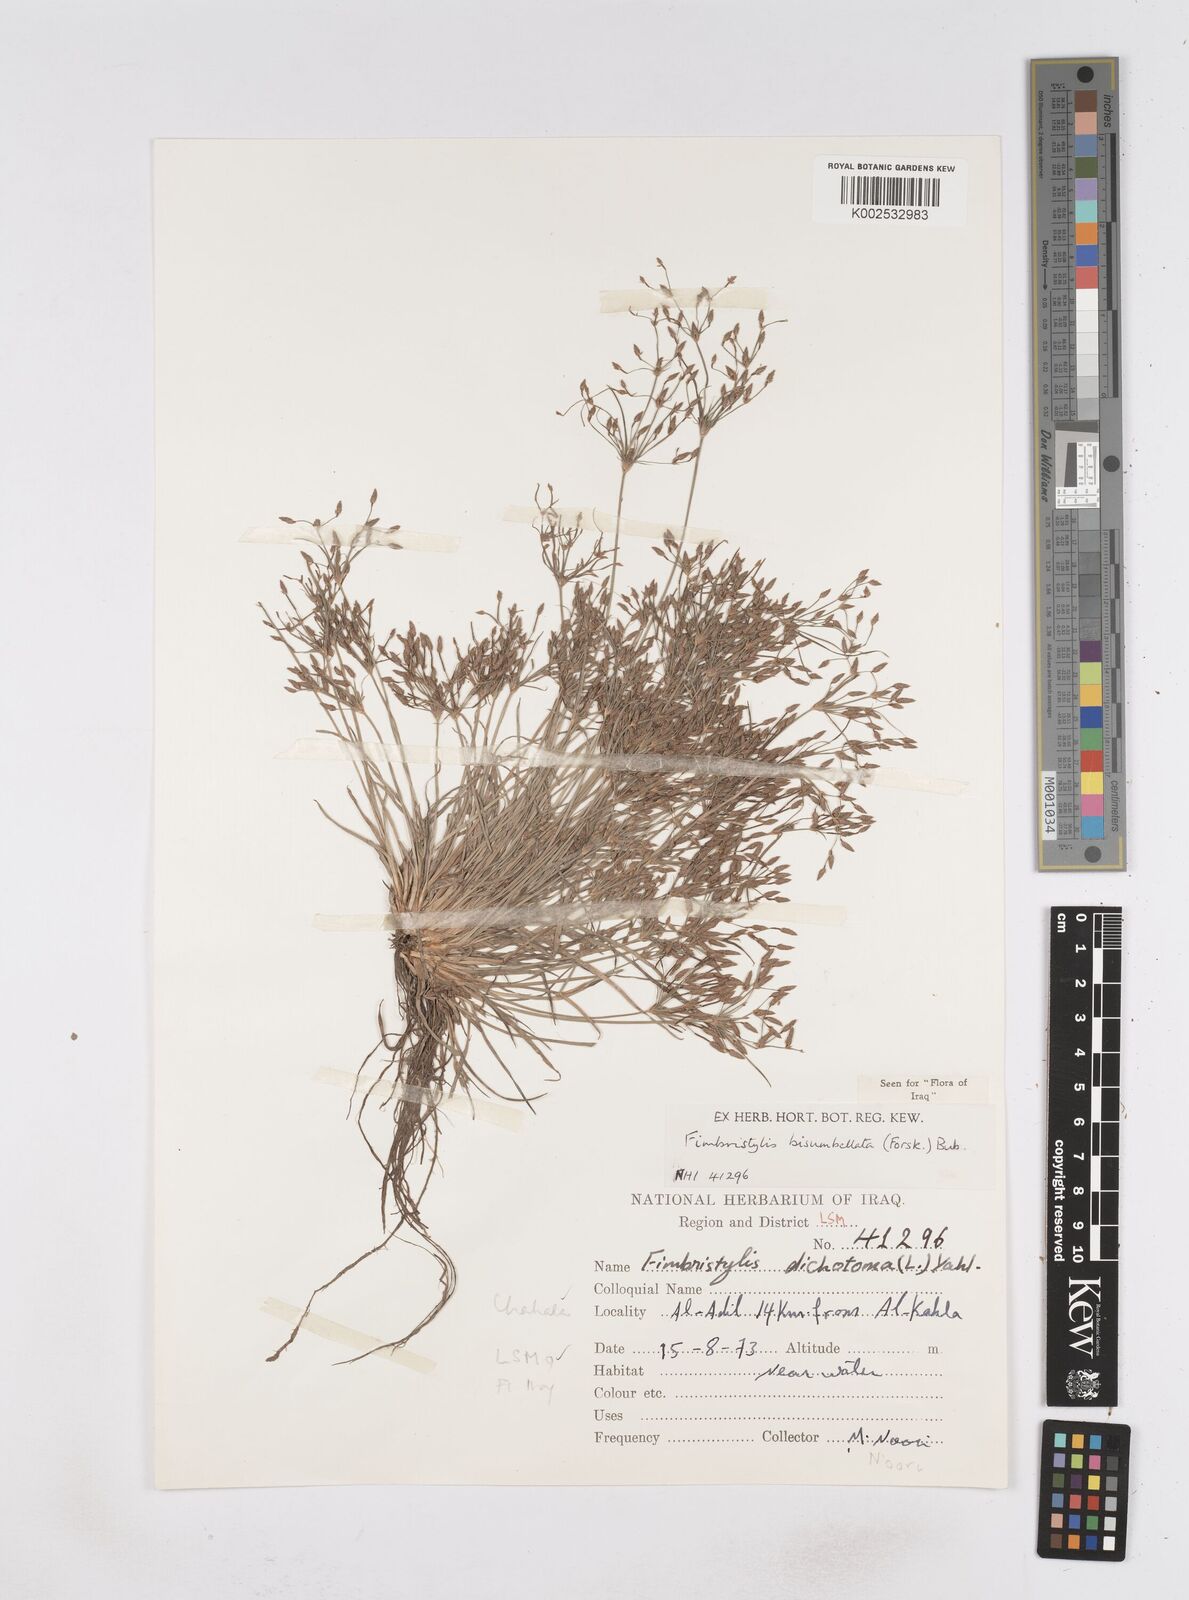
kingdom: Plantae
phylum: Tracheophyta
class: Liliopsida
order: Poales
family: Cyperaceae
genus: Fimbristylis
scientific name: Fimbristylis bisumbellata
